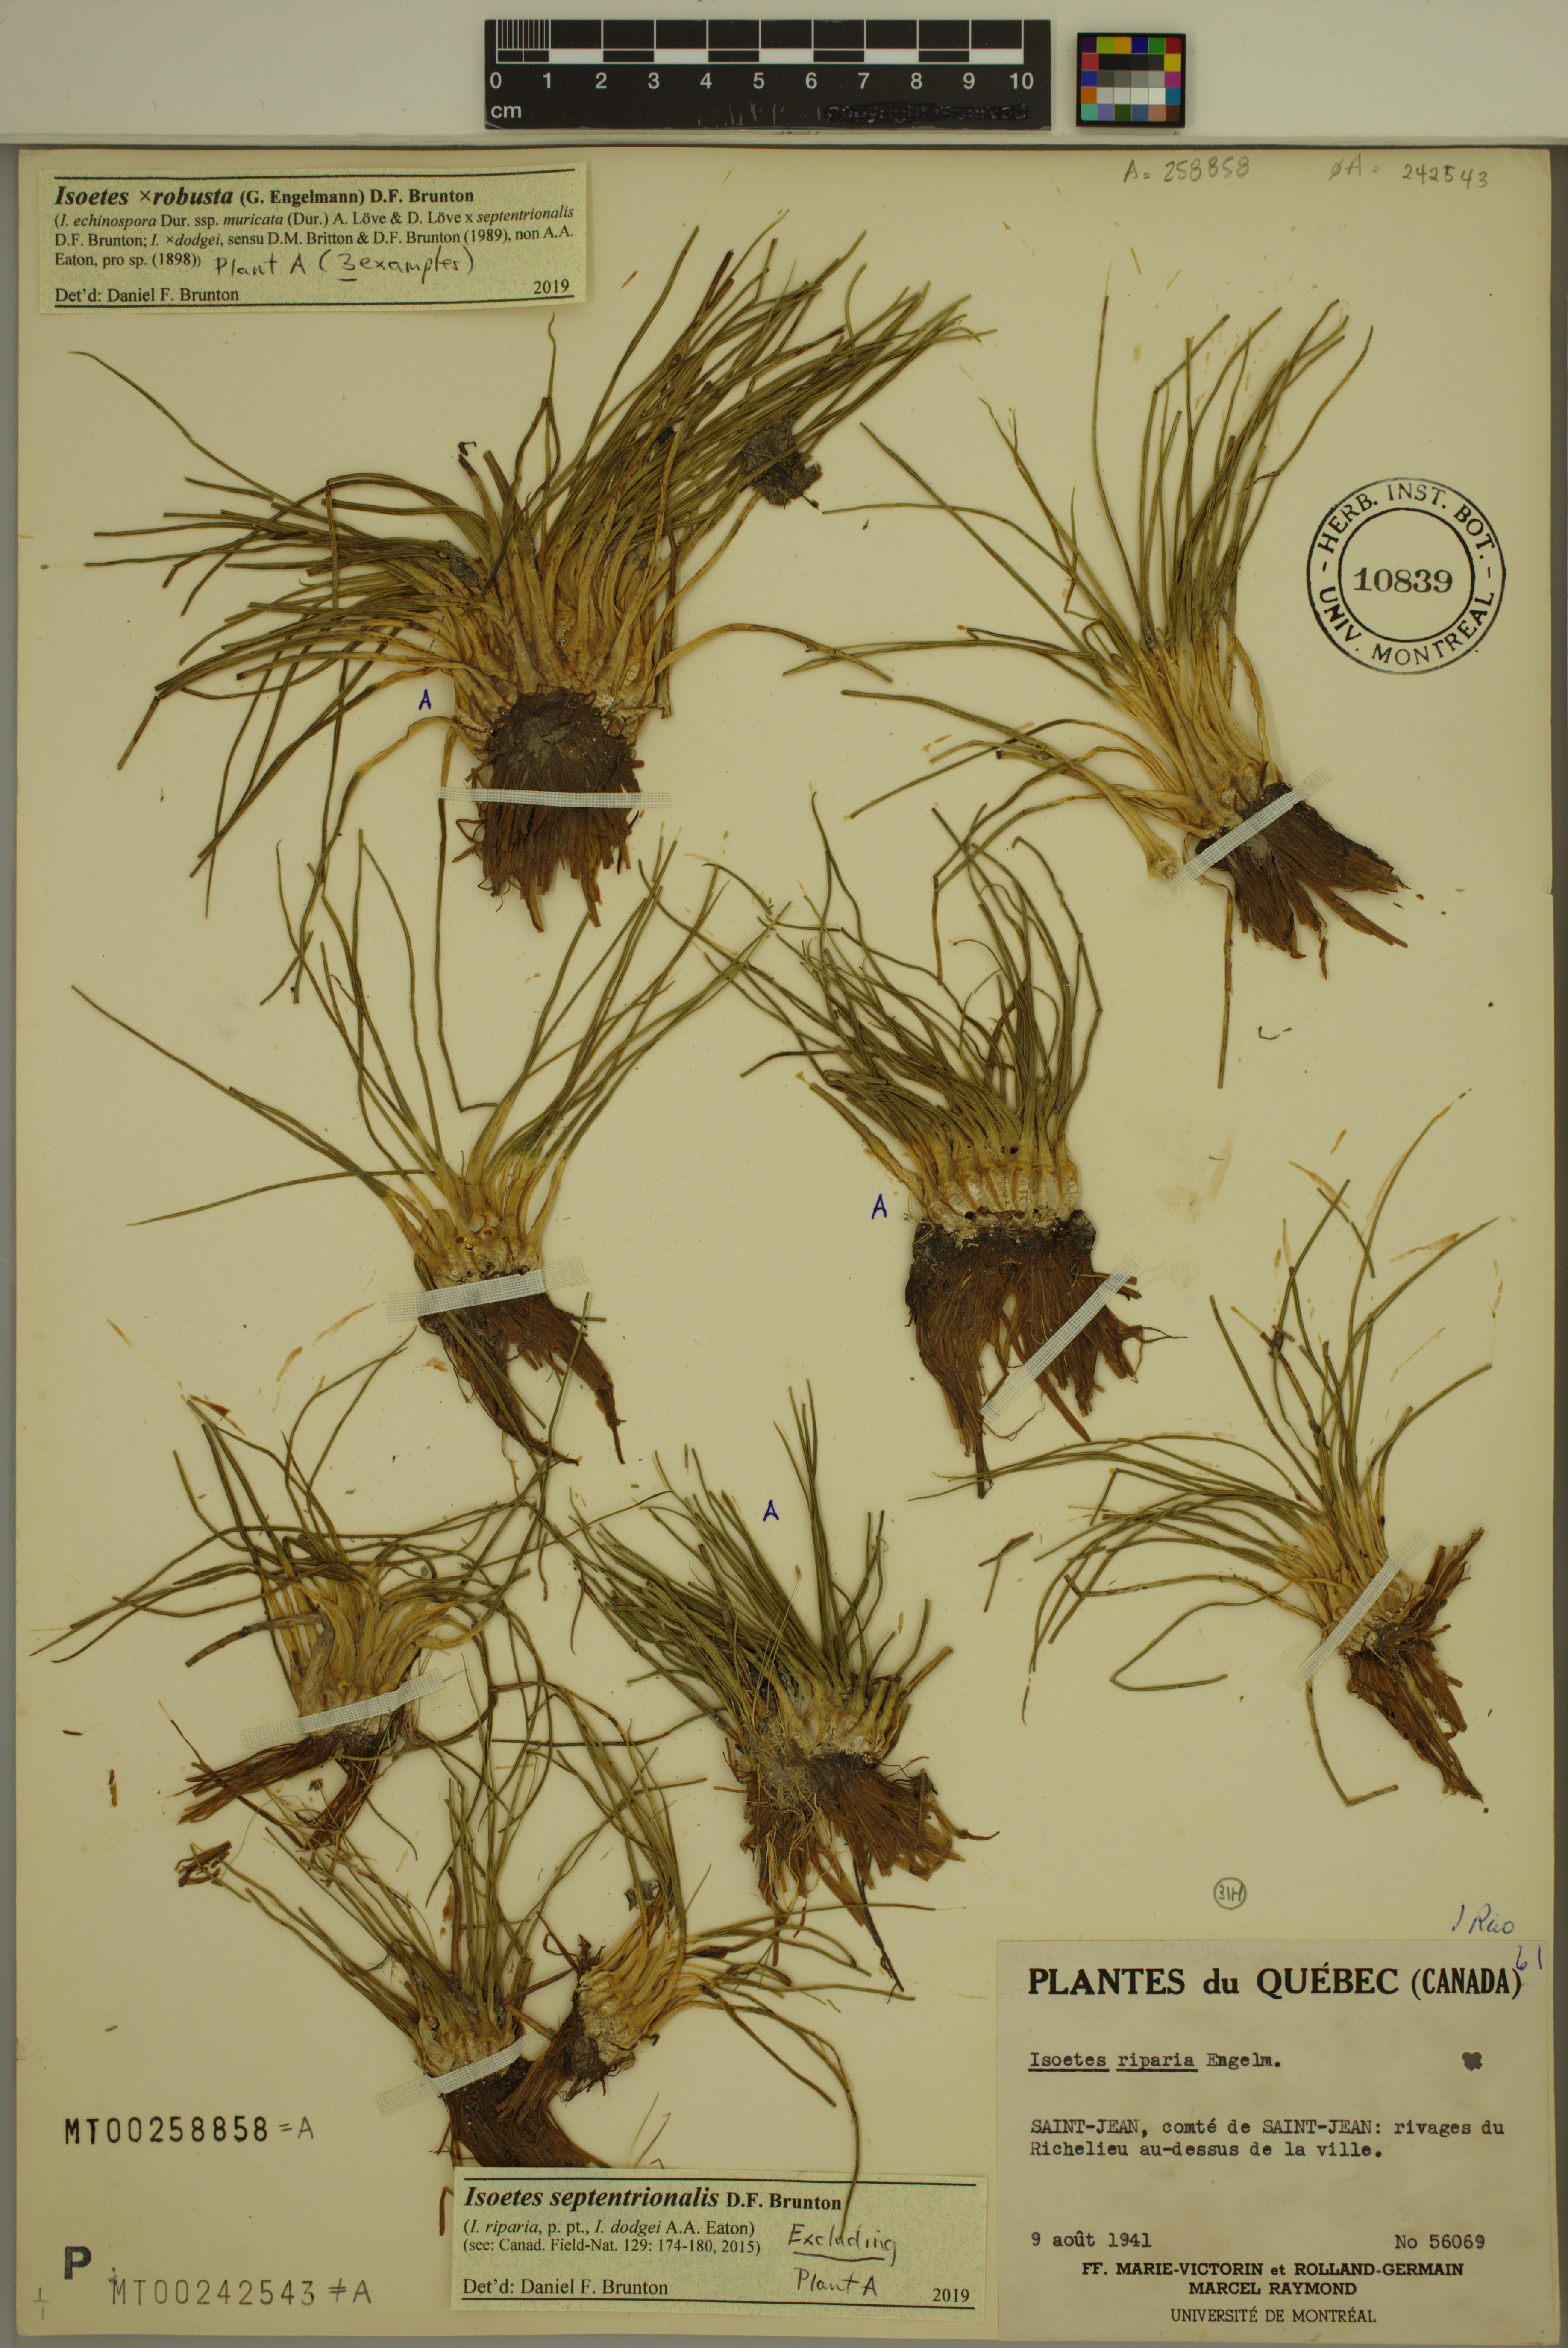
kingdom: Plantae
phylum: Tracheophyta
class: Lycopodiopsida
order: Isoetales
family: Isoetaceae
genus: Isoetes
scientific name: Isoetes robusta
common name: Robust quillwort
